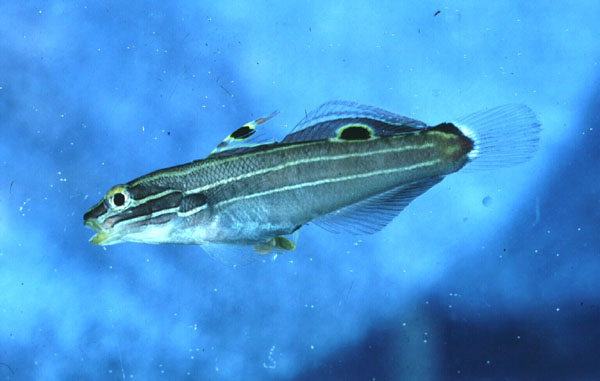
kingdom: Animalia
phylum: Chordata
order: Perciformes
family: Gobiidae
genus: Koumansetta
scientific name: Koumansetta hectori
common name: Hector's goby
